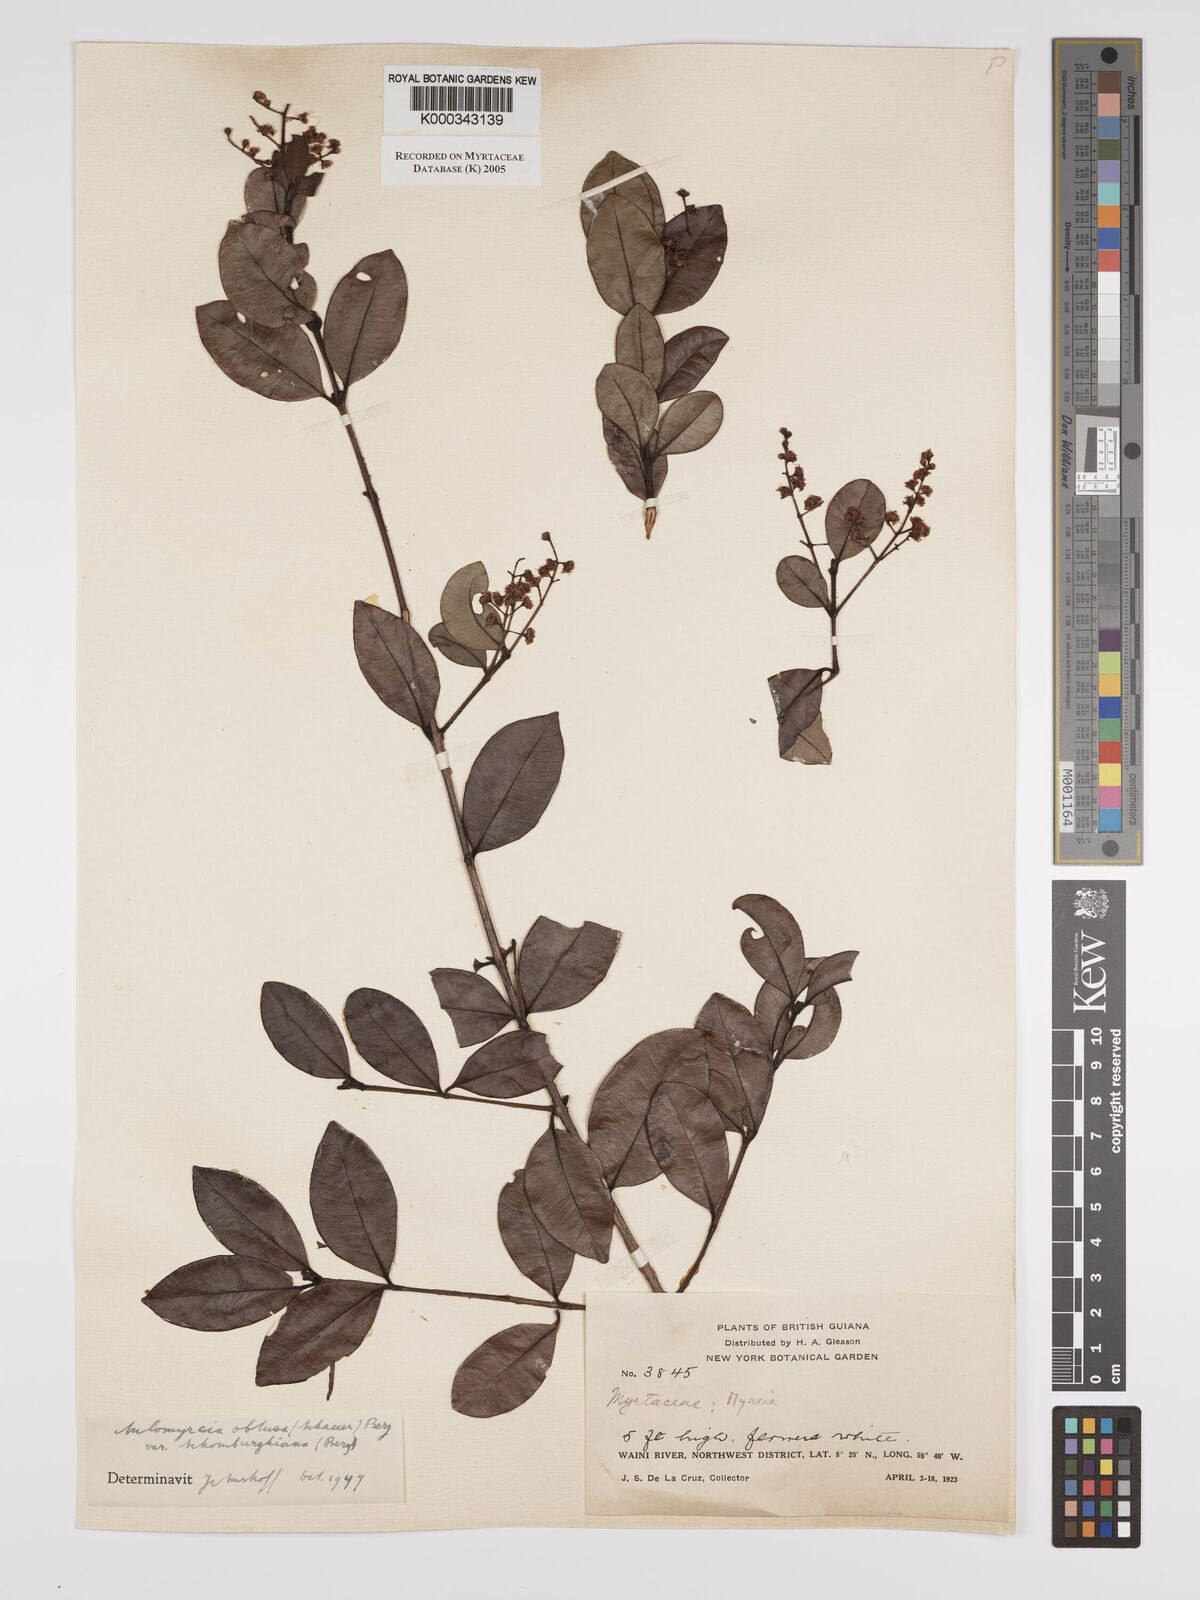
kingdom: Plantae
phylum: Tracheophyta
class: Magnoliopsida
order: Myrtales
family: Myrtaceae
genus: Myrcia
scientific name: Myrcia guianensis
